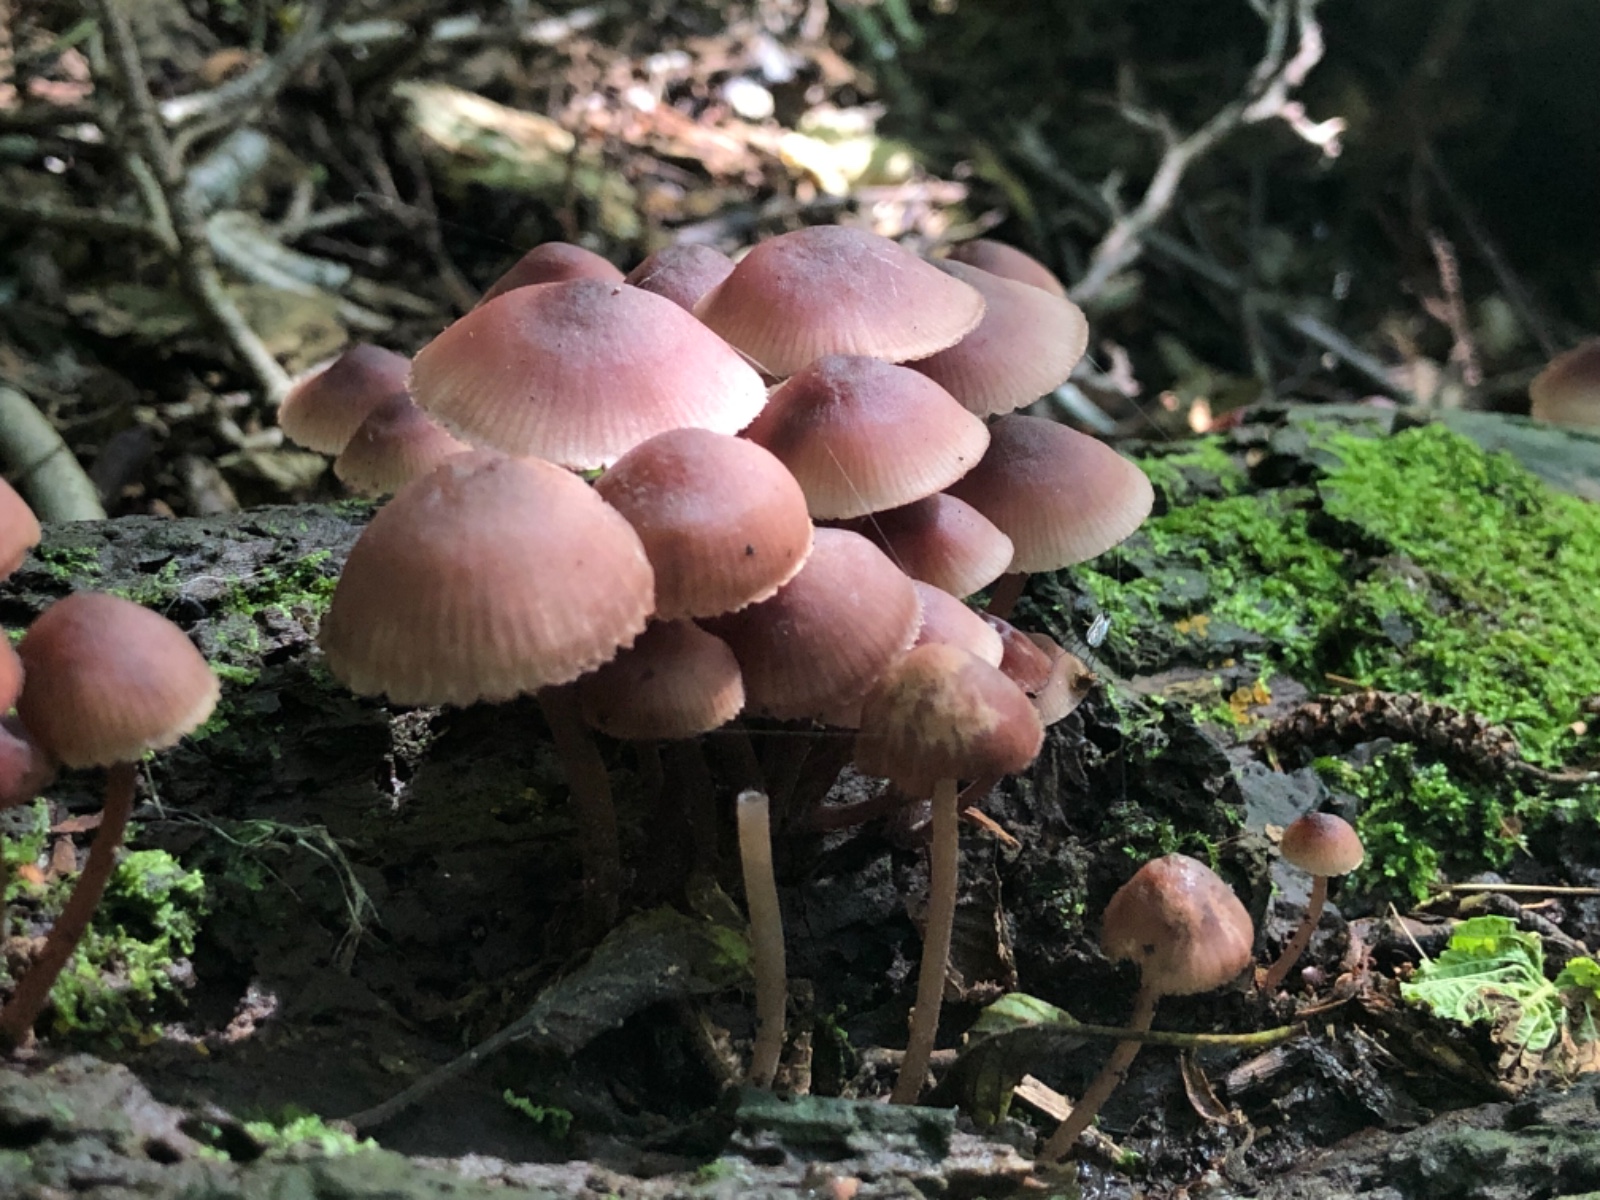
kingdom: Fungi
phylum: Basidiomycota
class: Agaricomycetes
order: Agaricales
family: Mycenaceae
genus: Mycena
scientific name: Mycena haematopus
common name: blødende huesvamp
